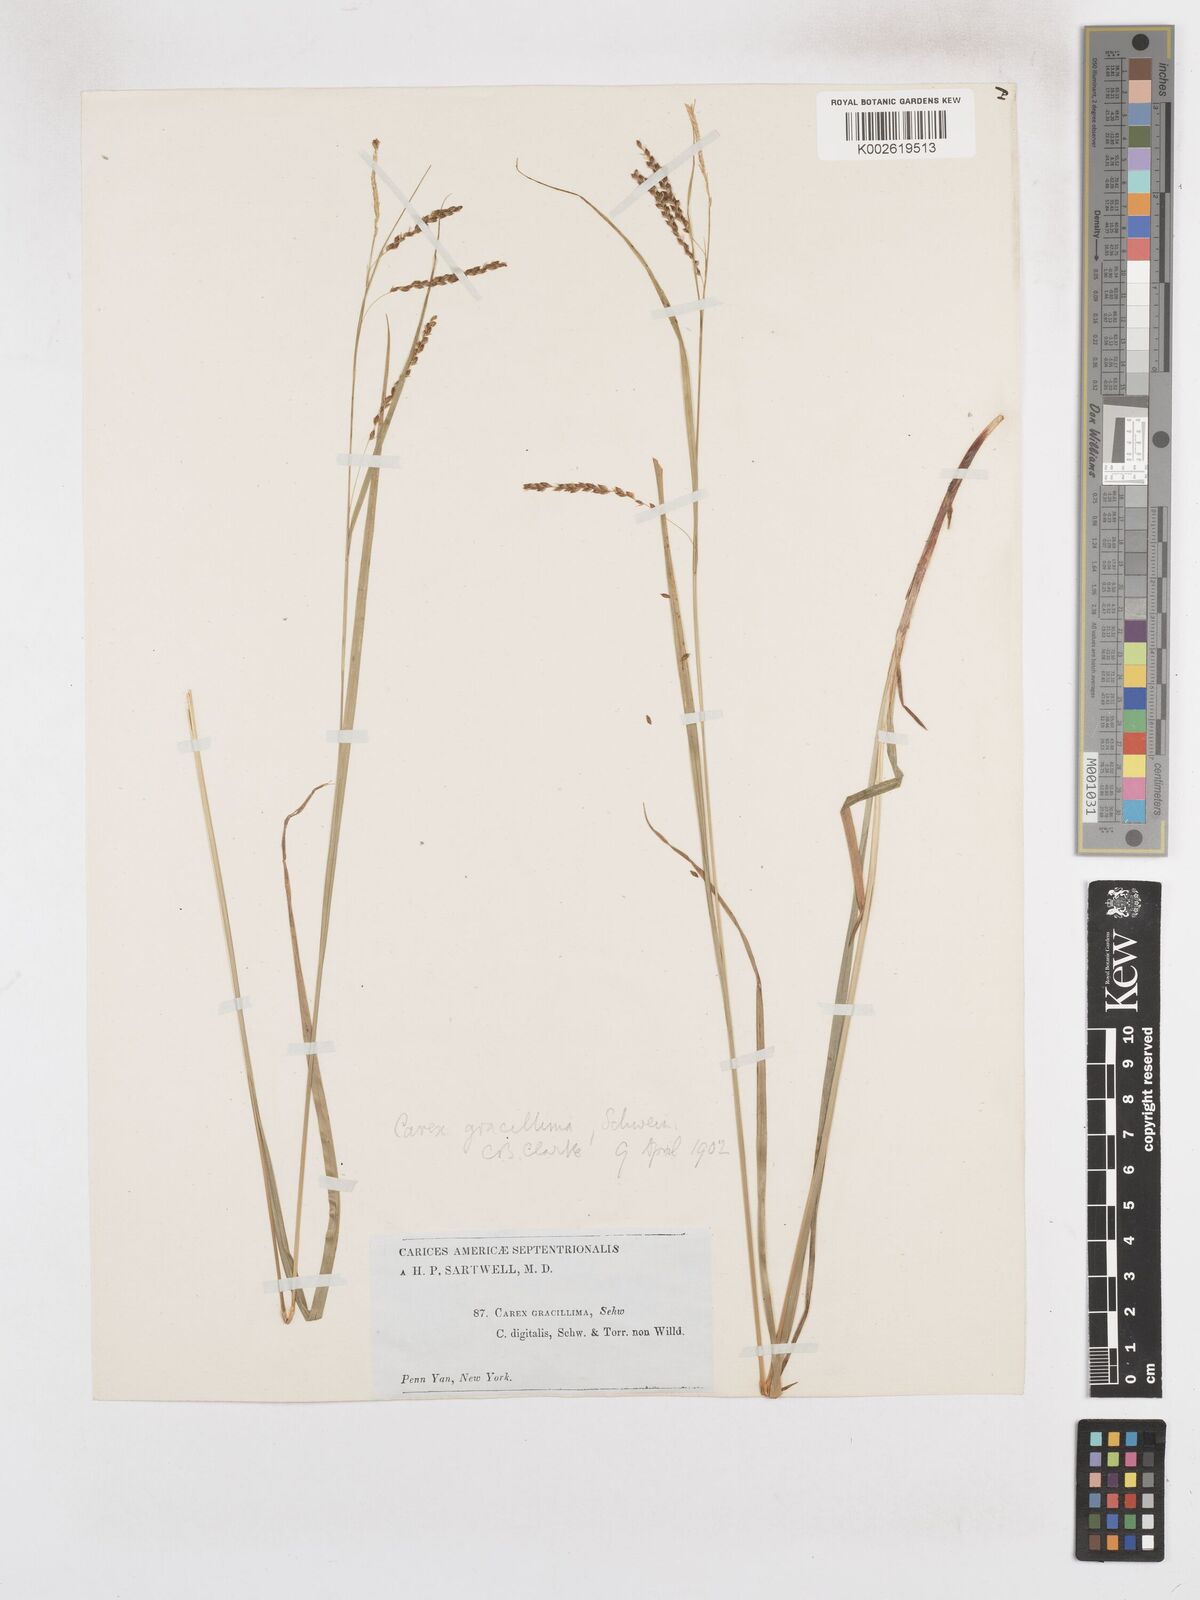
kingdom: Plantae
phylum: Tracheophyta
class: Liliopsida
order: Poales
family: Cyperaceae
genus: Carex
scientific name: Carex gracillima
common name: Graceful sedge
